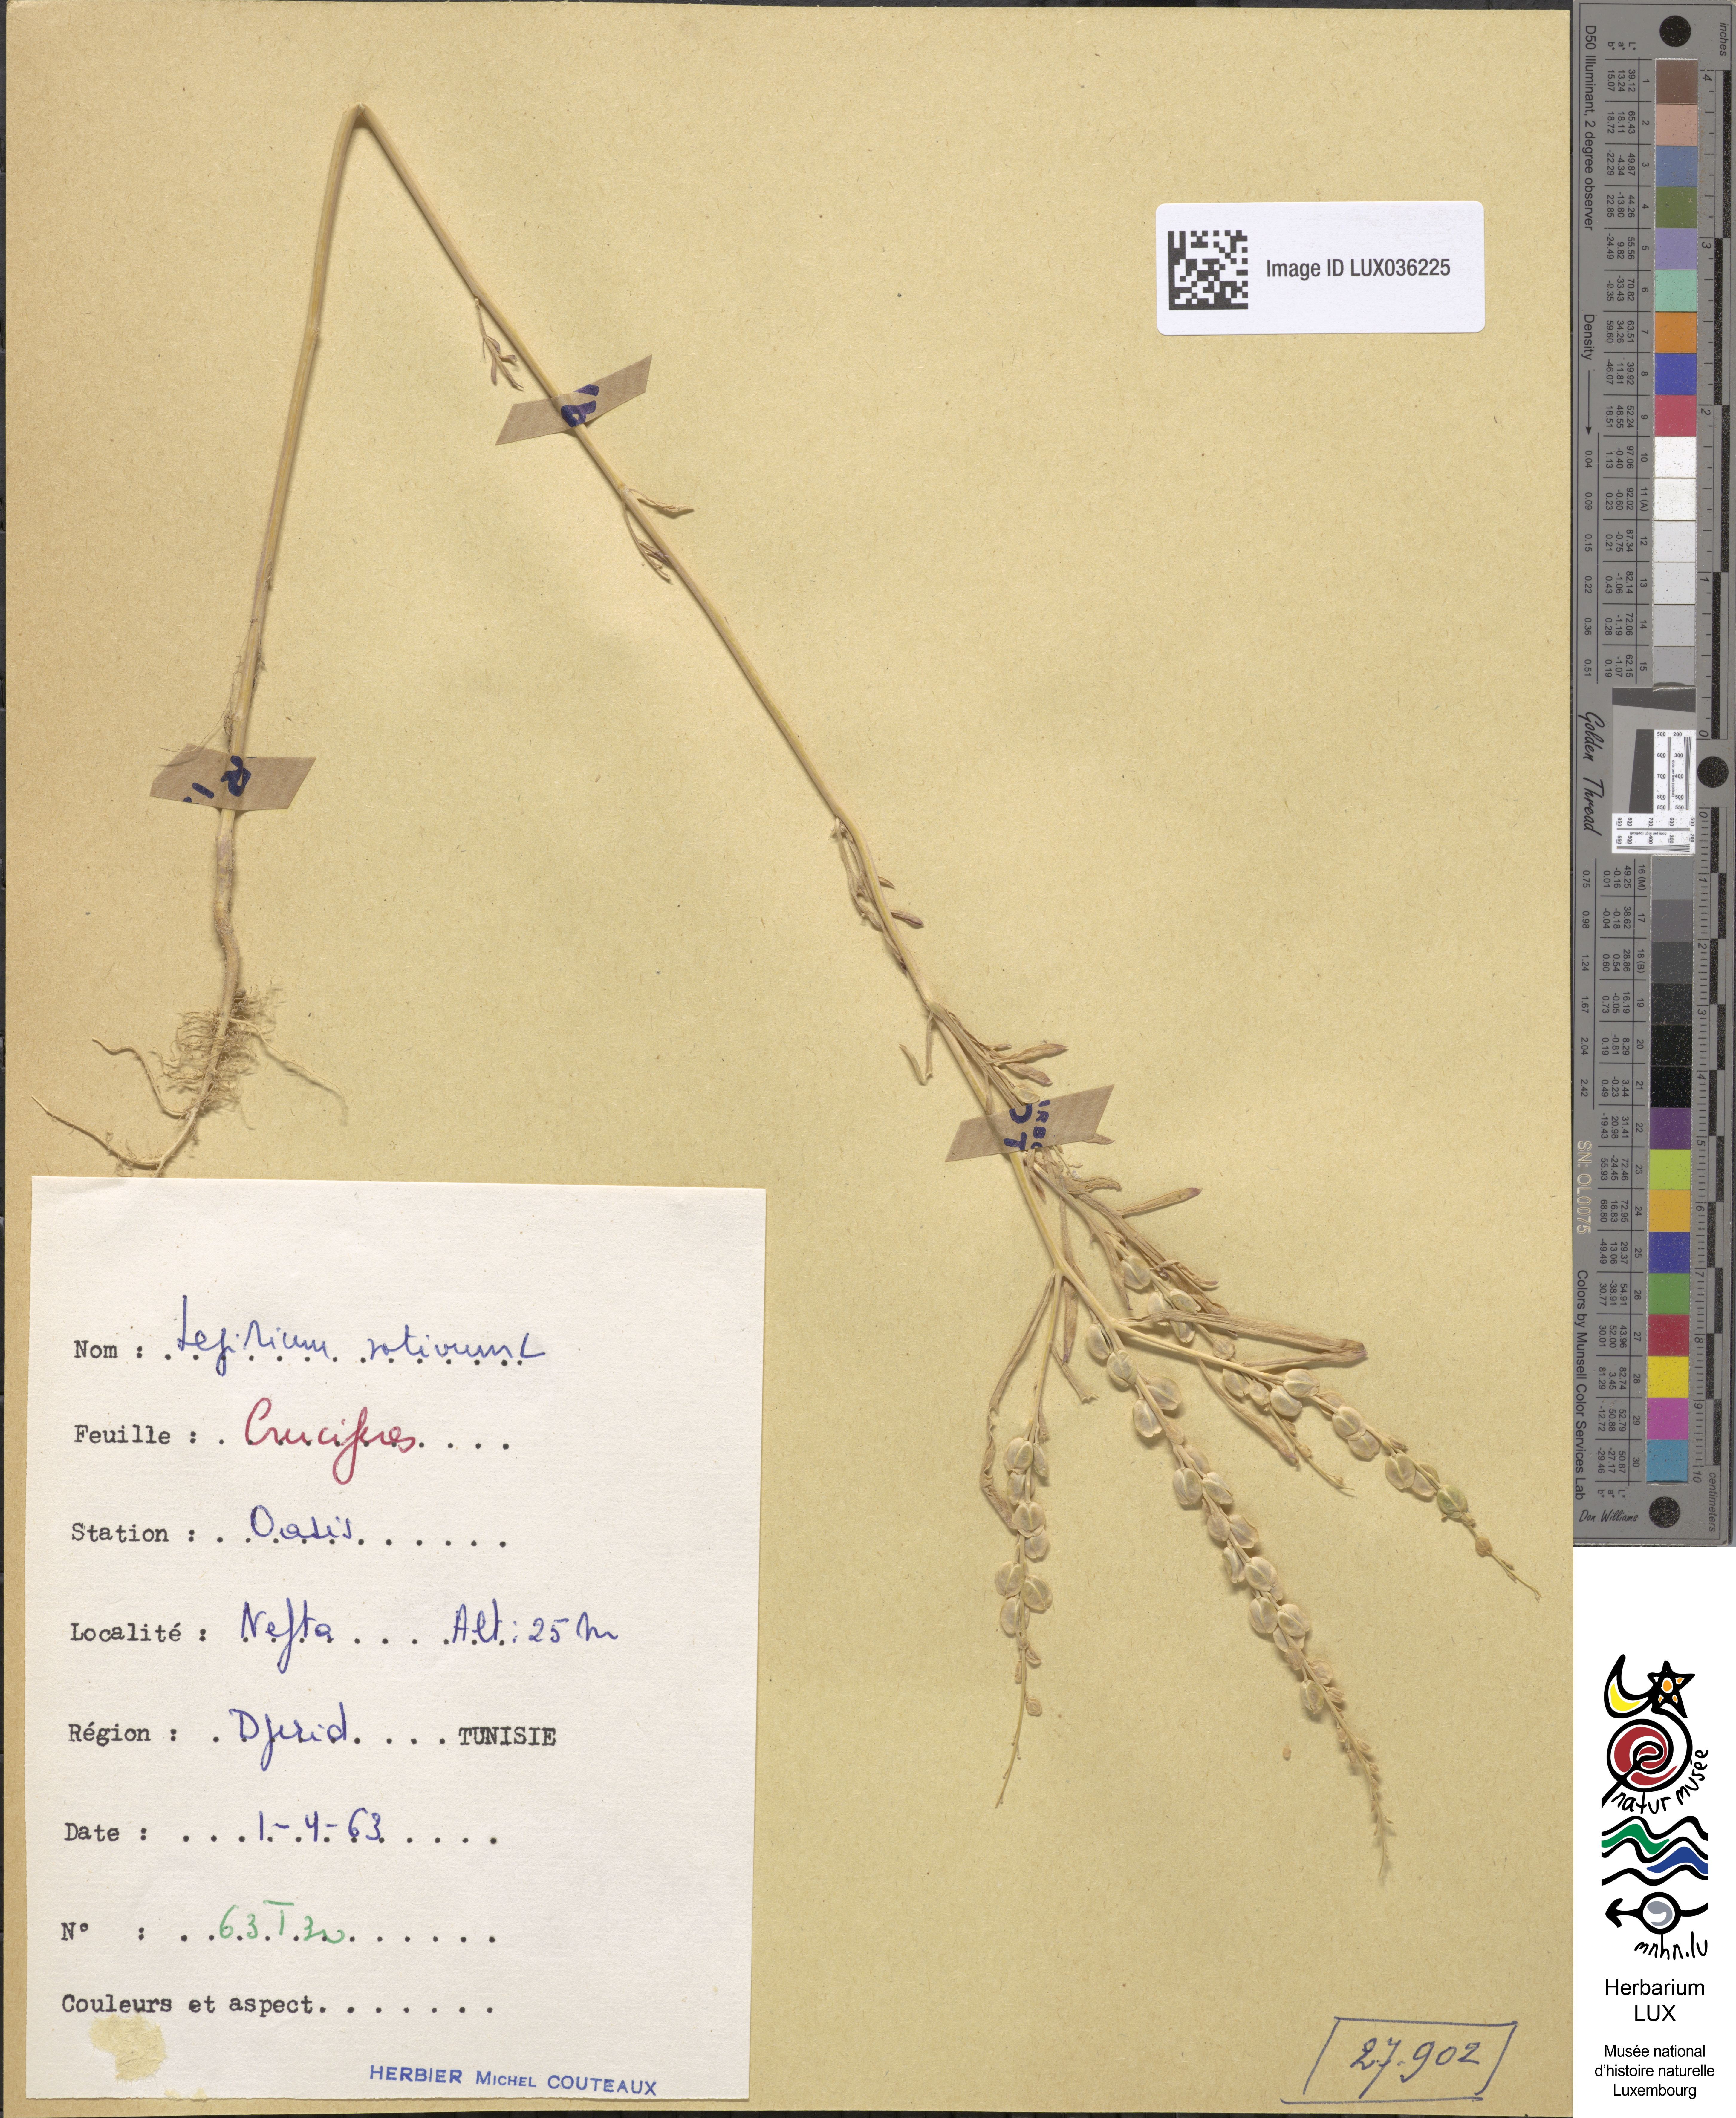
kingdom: Plantae
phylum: Tracheophyta
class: Magnoliopsida
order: Brassicales
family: Brassicaceae
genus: Lepidium
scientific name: Lepidium sativum
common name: Garden cress
